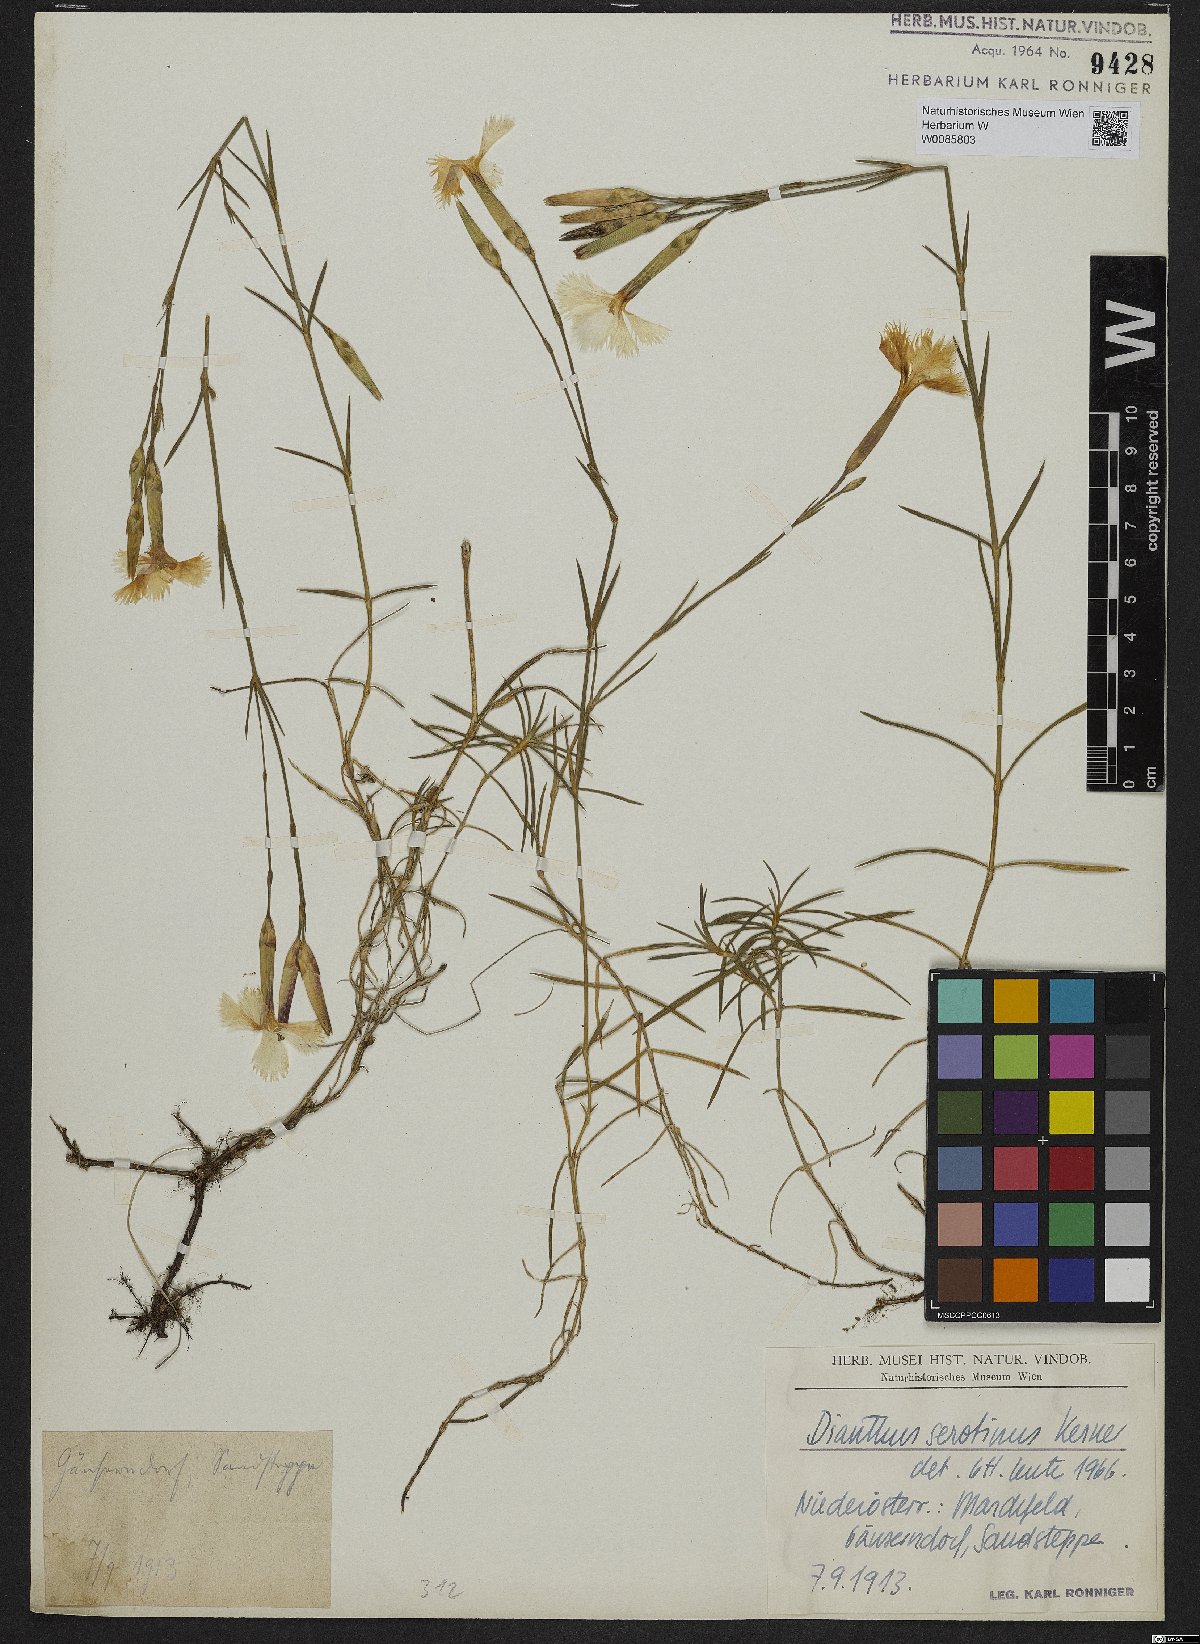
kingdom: Plantae
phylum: Tracheophyta
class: Magnoliopsida
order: Caryophyllales
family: Caryophyllaceae
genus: Dianthus
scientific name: Dianthus serotinus
